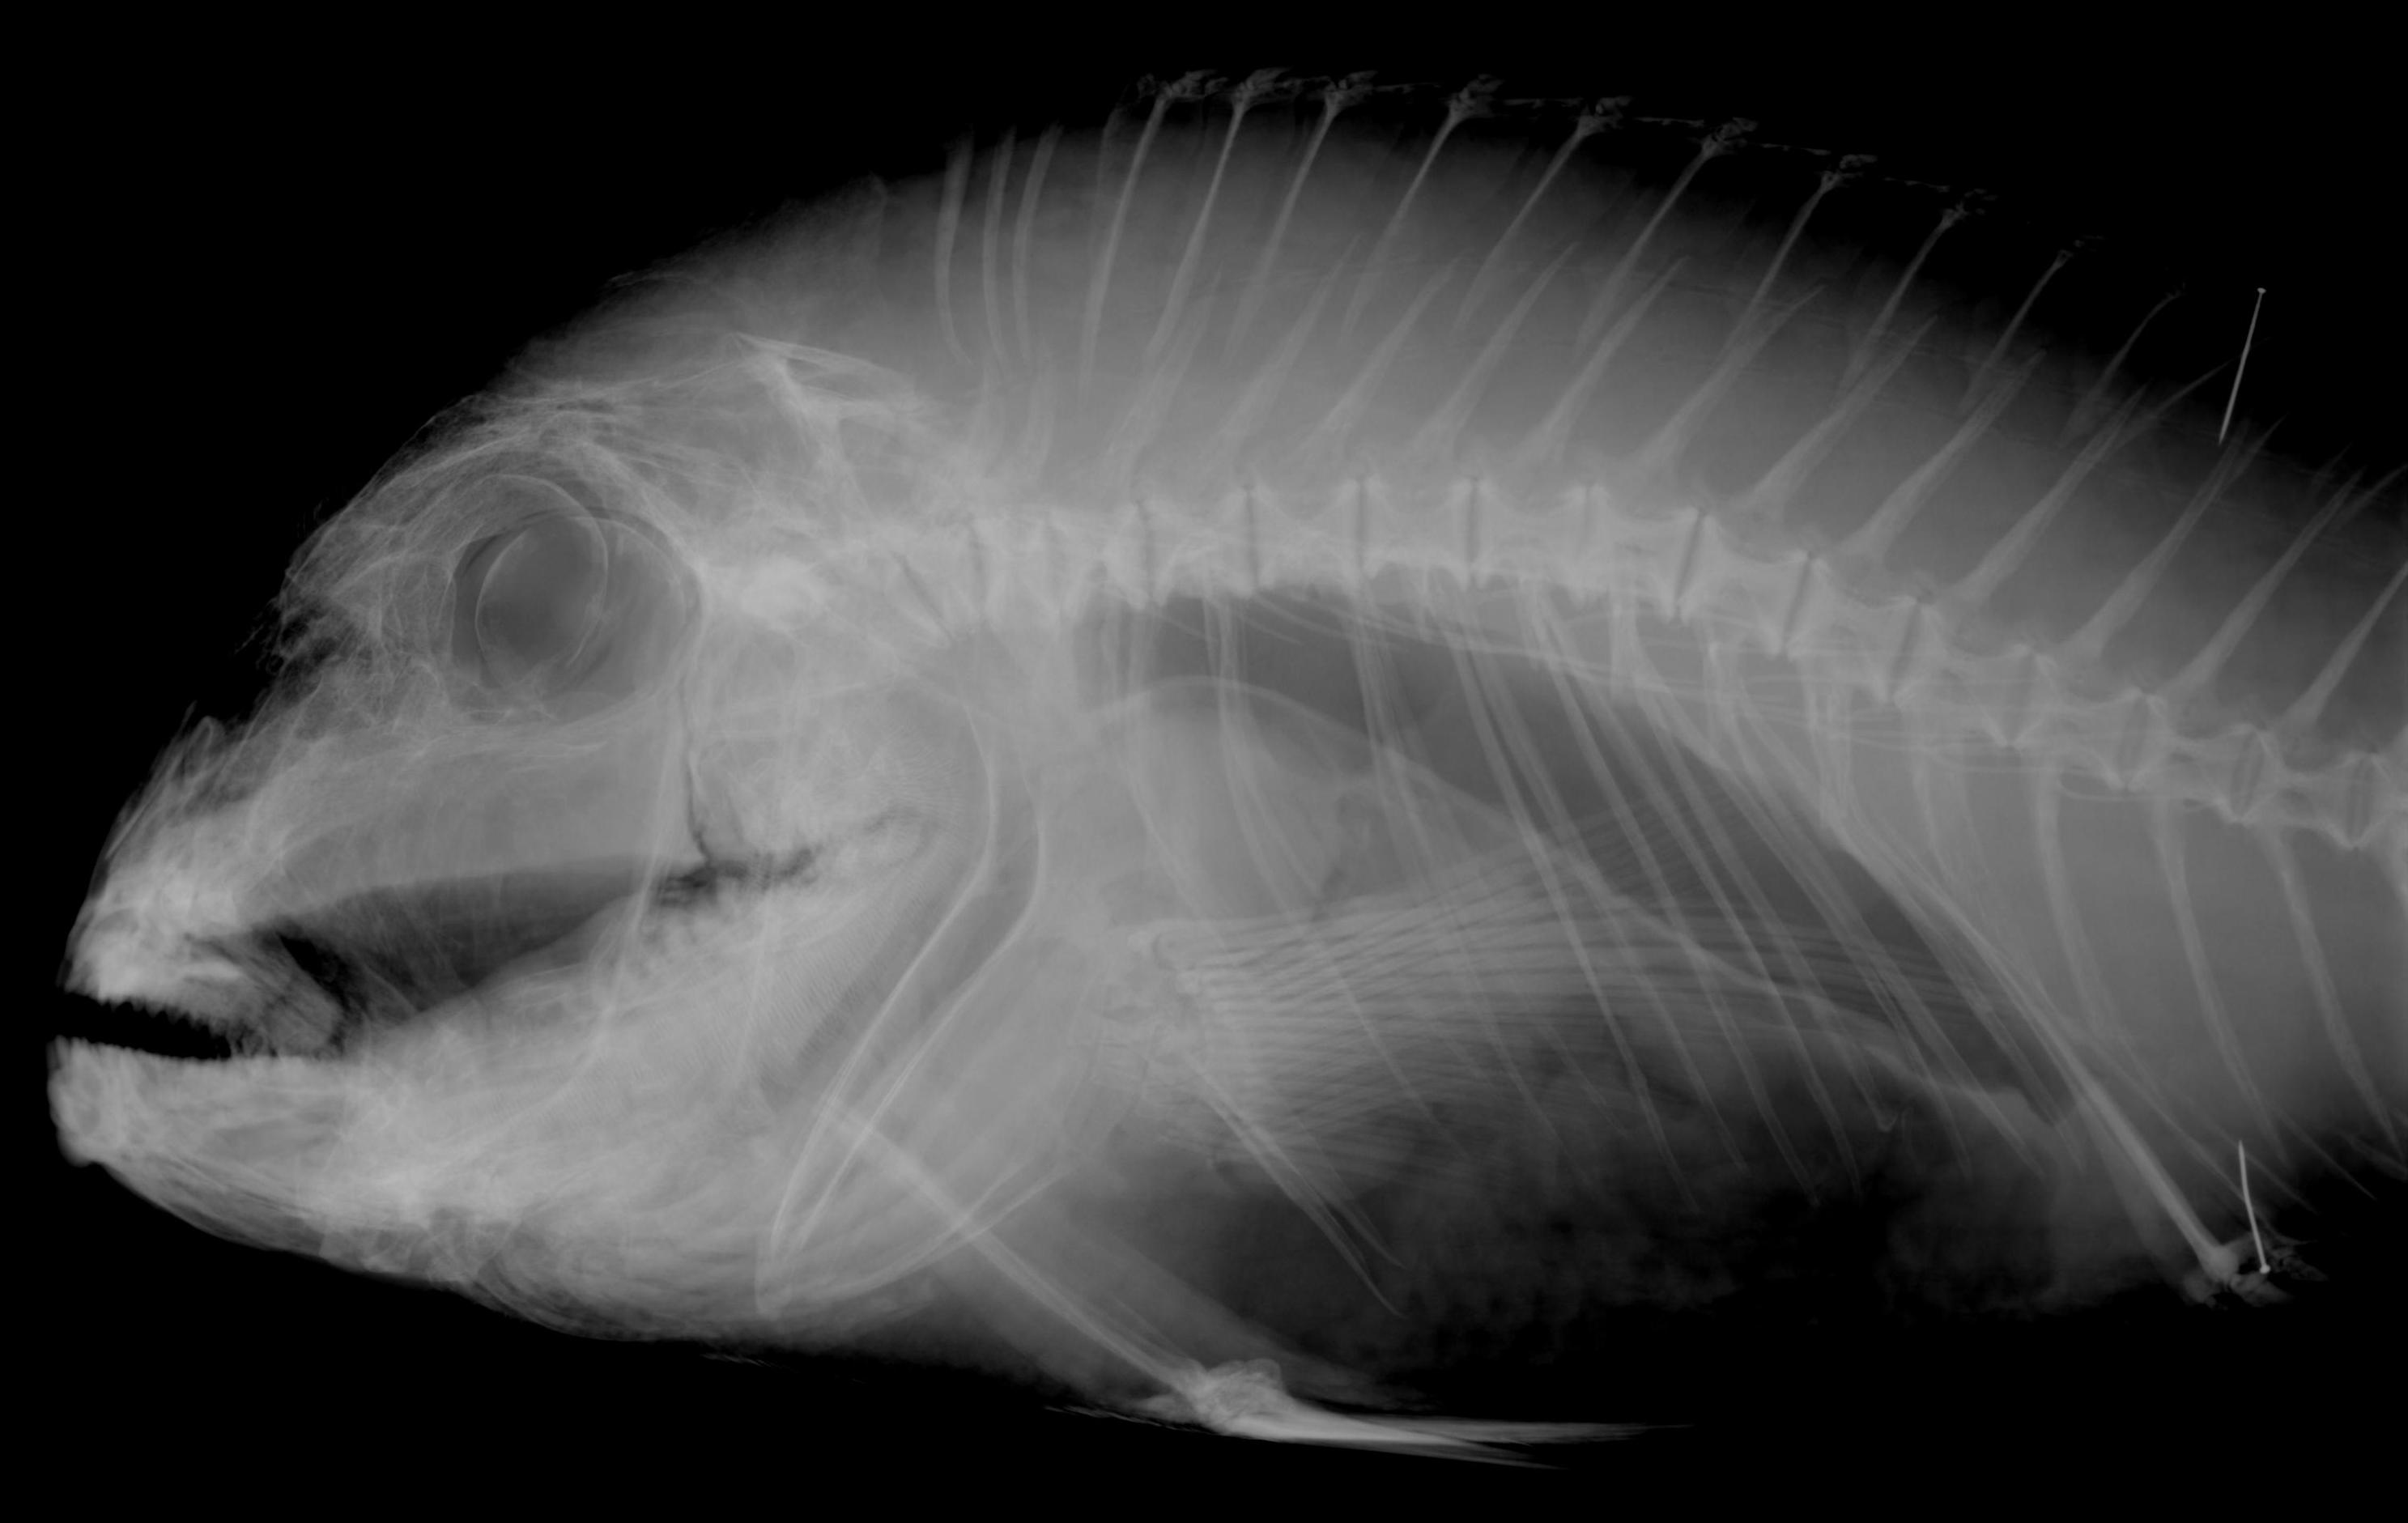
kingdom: Animalia
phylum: Chordata
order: Perciformes
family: Sparidae
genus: Polysteganus
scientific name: Polysteganus mascarenensis
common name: Mascarene red seabream
